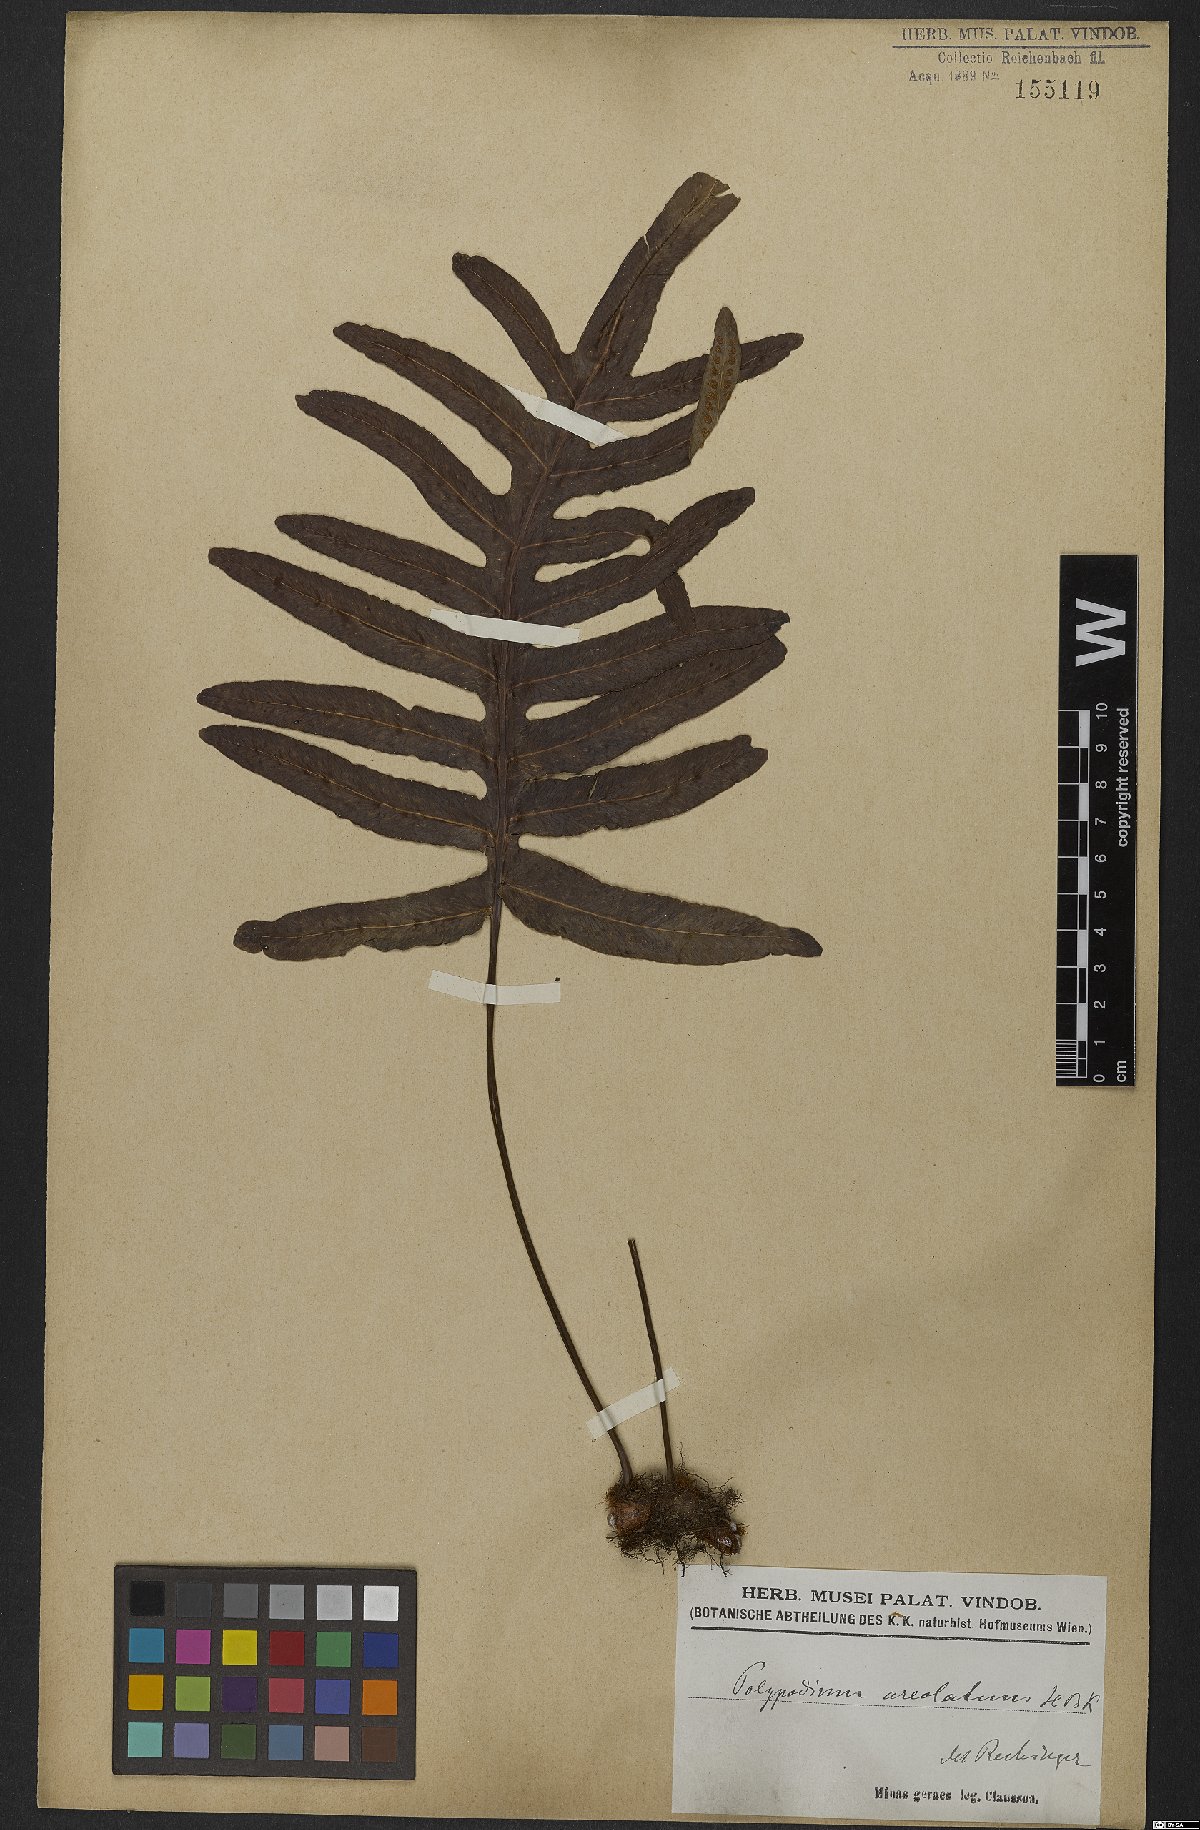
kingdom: Plantae
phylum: Tracheophyta
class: Polypodiopsida
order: Polypodiales
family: Polypodiaceae
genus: Phlebodium
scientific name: Phlebodium aureum
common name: Gold-foot fern
